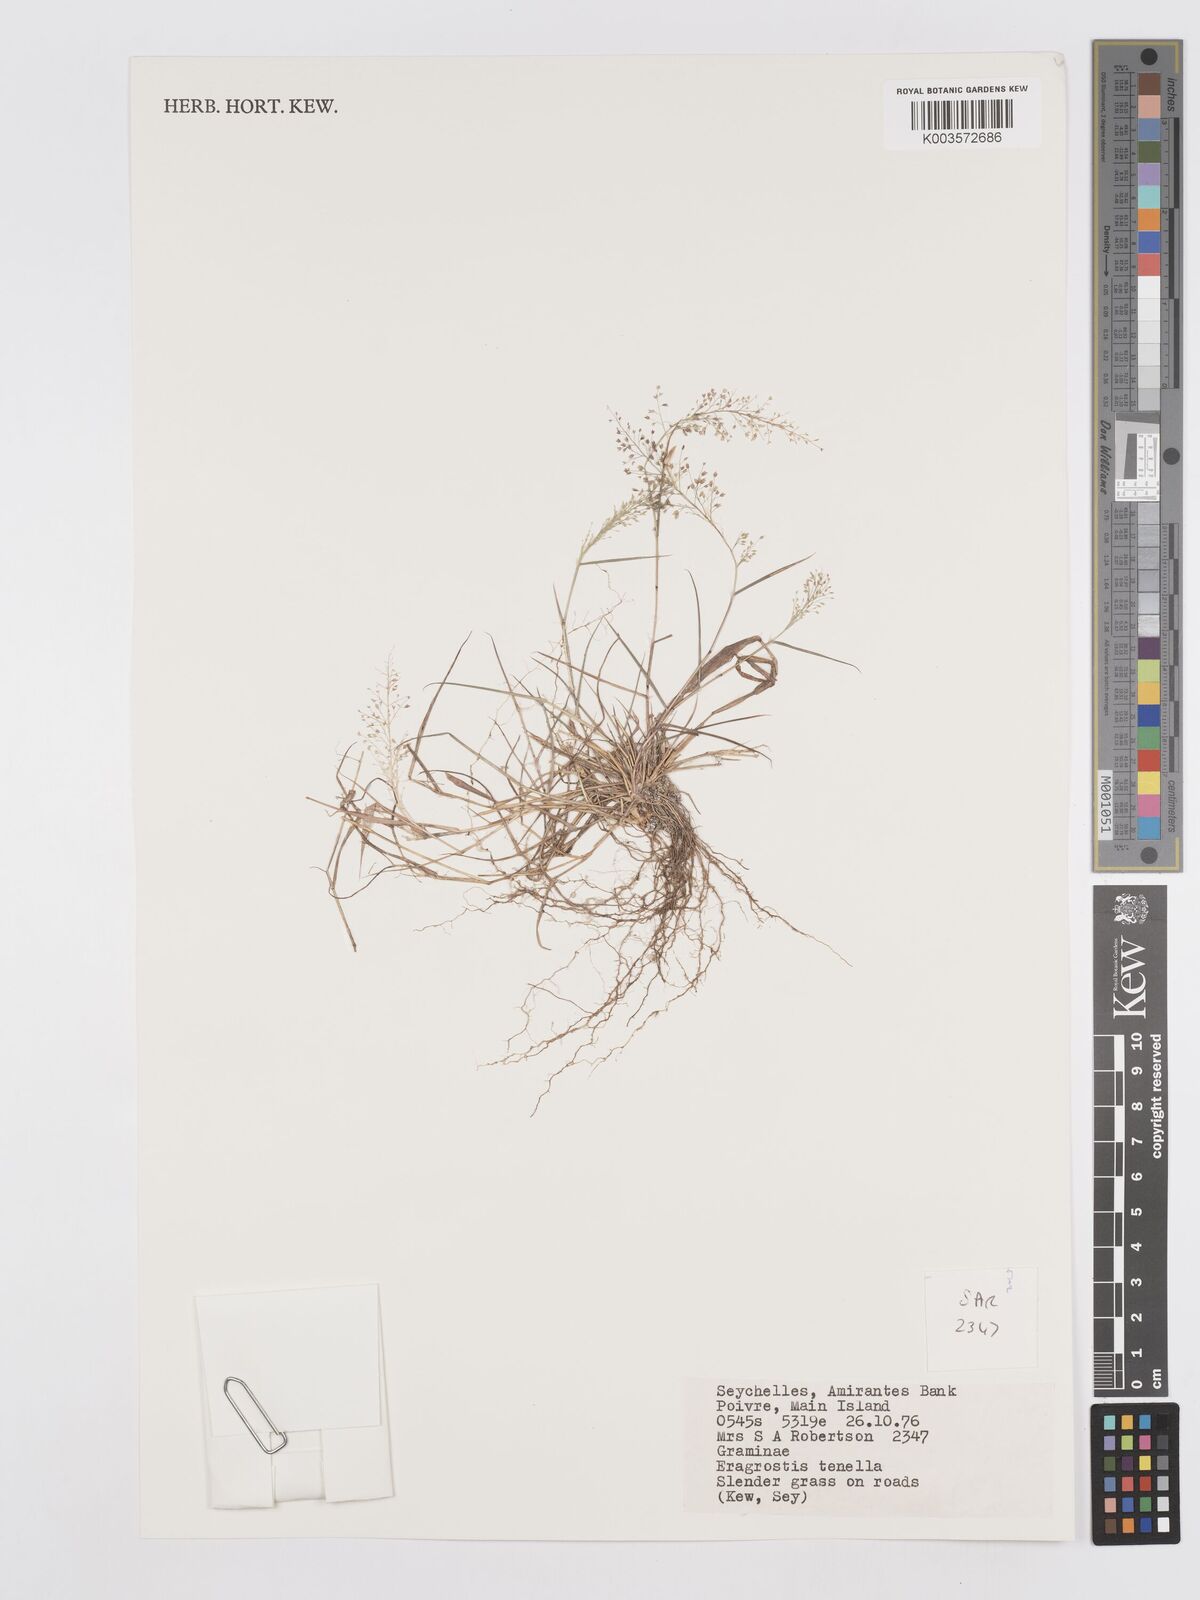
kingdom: Plantae
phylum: Tracheophyta
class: Liliopsida
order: Poales
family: Poaceae
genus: Eragrostis
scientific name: Eragrostis tenella
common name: Japanese lovegrass
